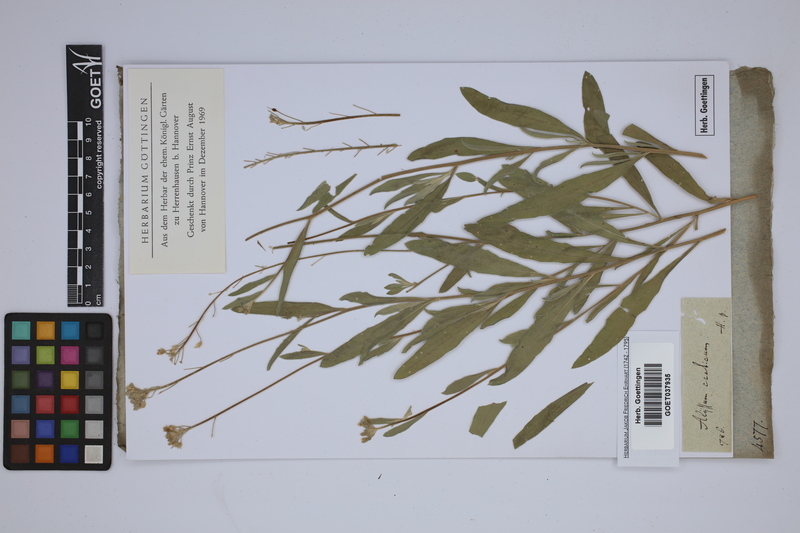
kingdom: Plantae
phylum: Tracheophyta
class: Magnoliopsida
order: Brassicales
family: Brassicaceae
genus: Lutzia
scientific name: Lutzia cretica
